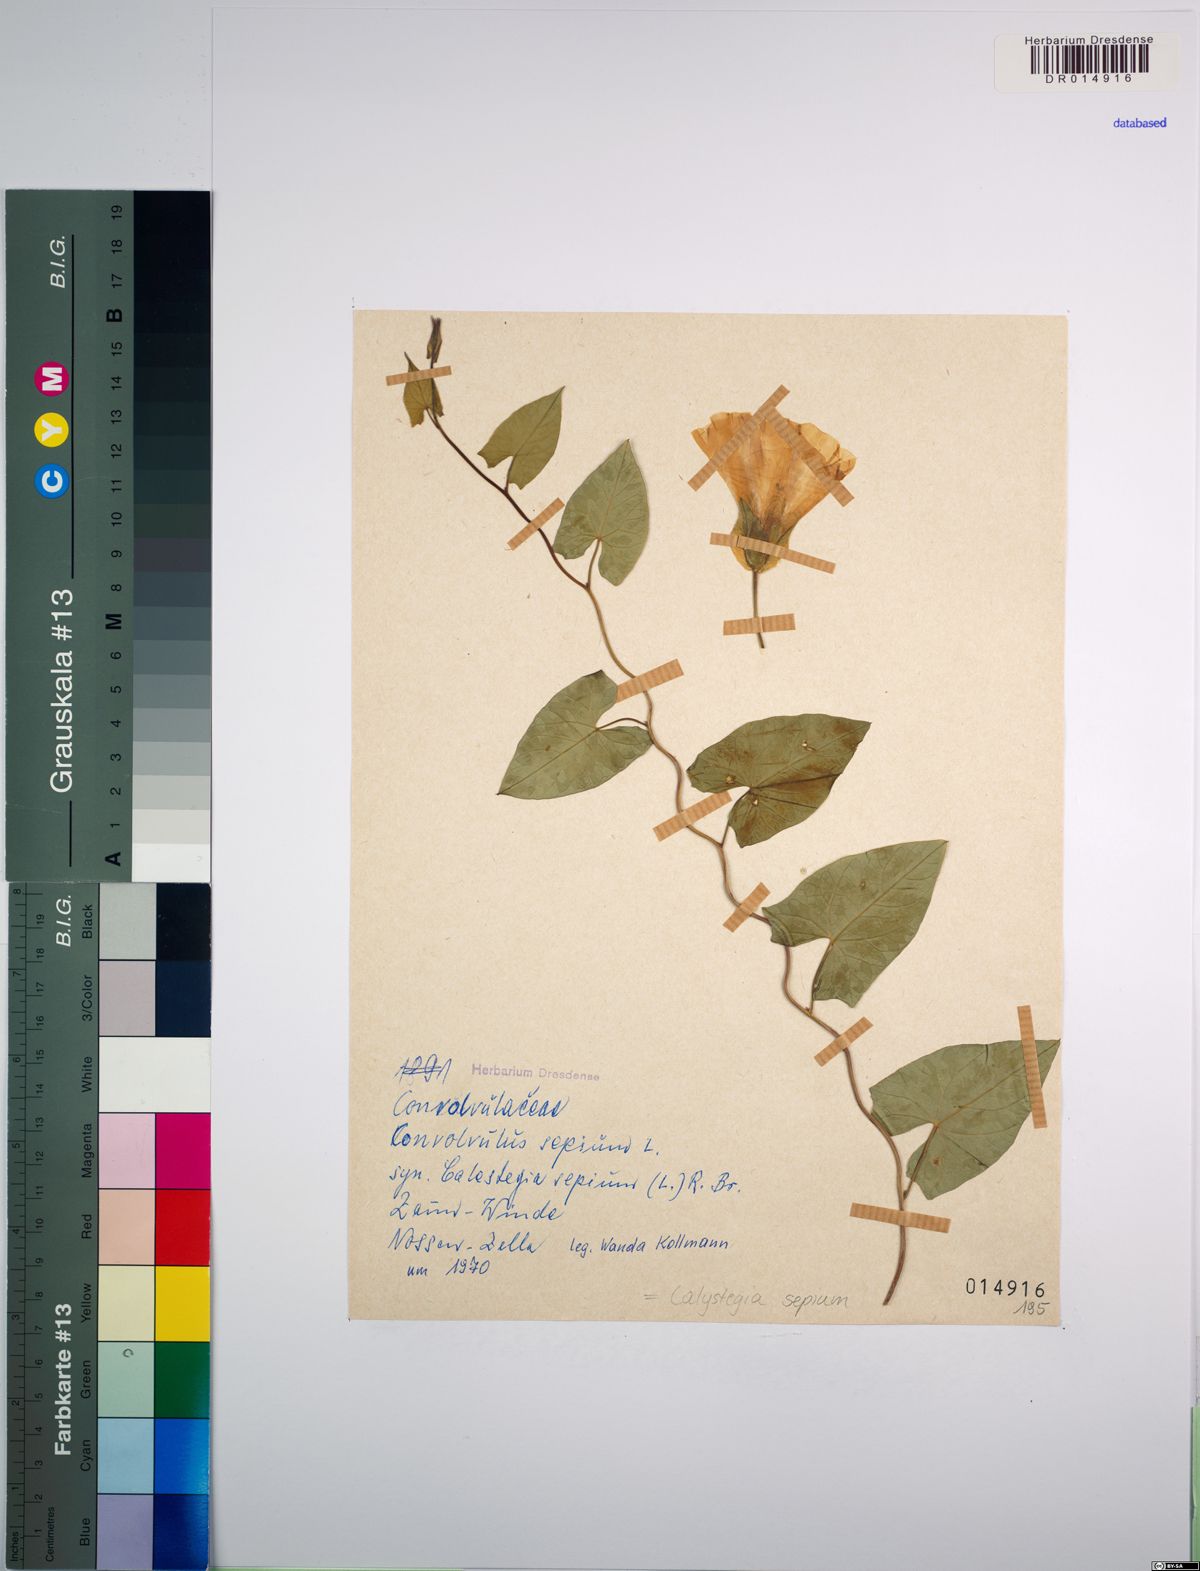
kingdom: Plantae
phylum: Tracheophyta
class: Magnoliopsida
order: Solanales
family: Convolvulaceae
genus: Calystegia
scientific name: Calystegia sepium
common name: Hedge bindweed
